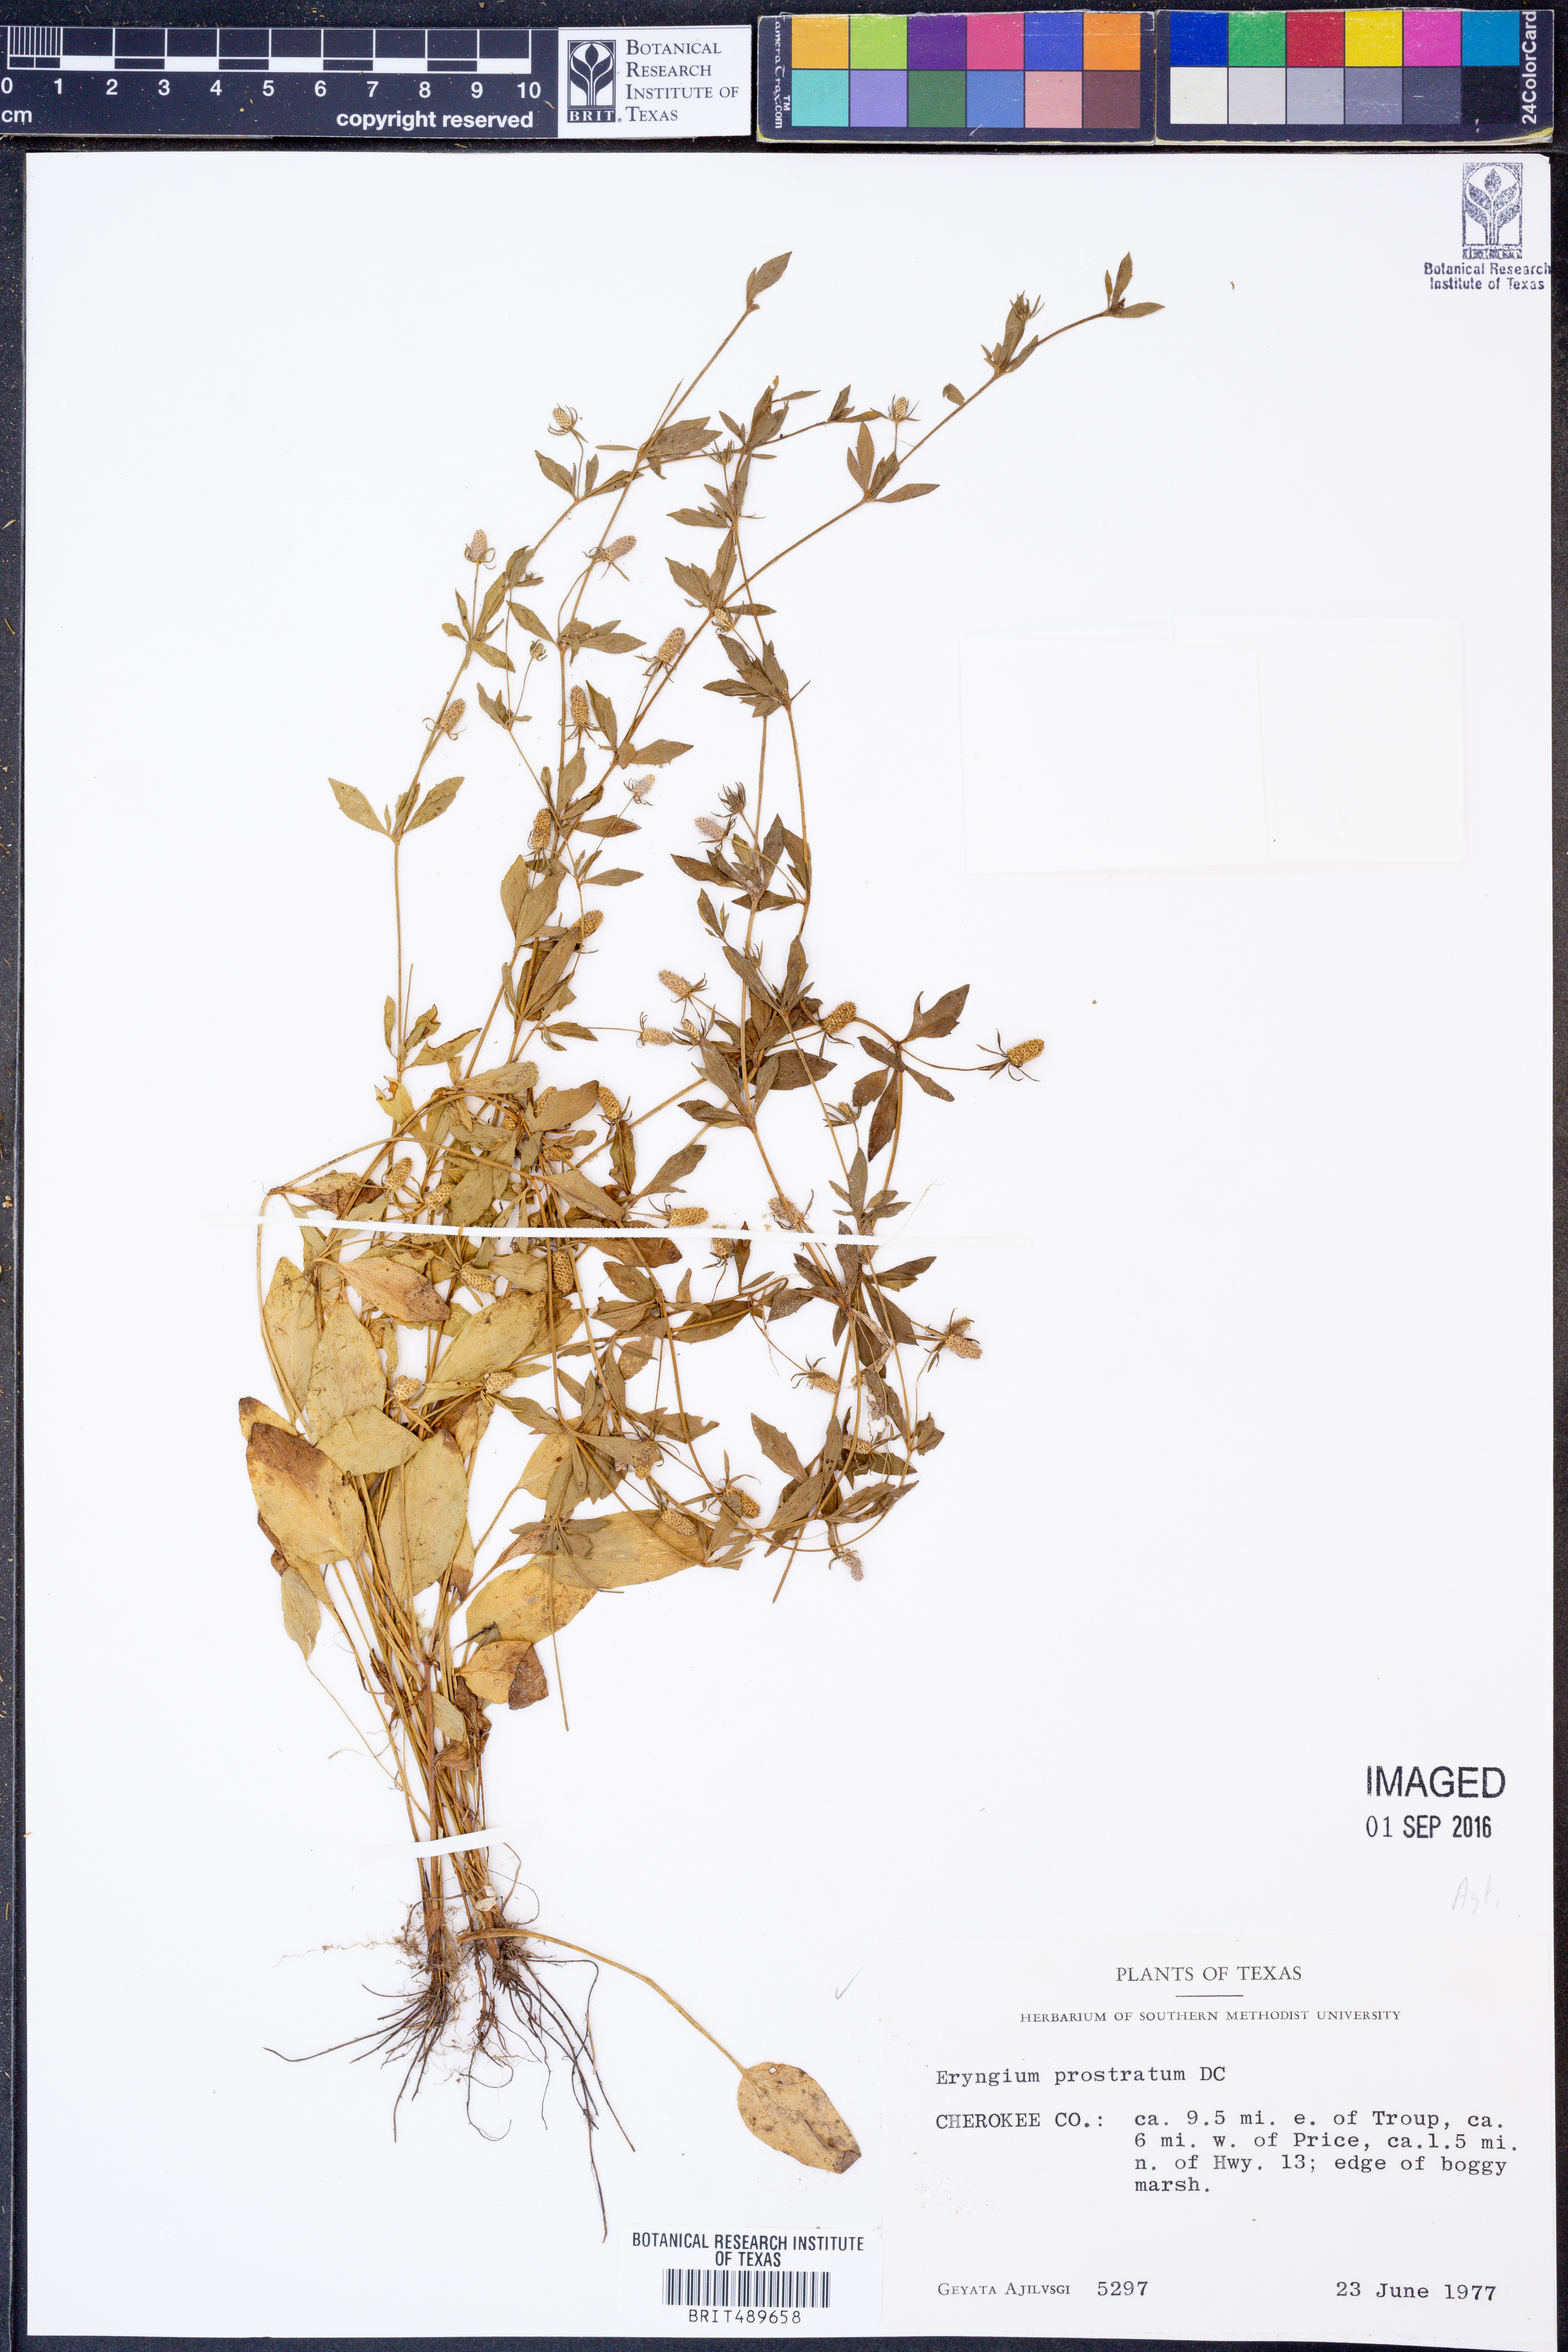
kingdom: Plantae
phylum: Tracheophyta
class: Magnoliopsida
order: Apiales
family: Apiaceae
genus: Eryngium
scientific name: Eryngium prostratum
